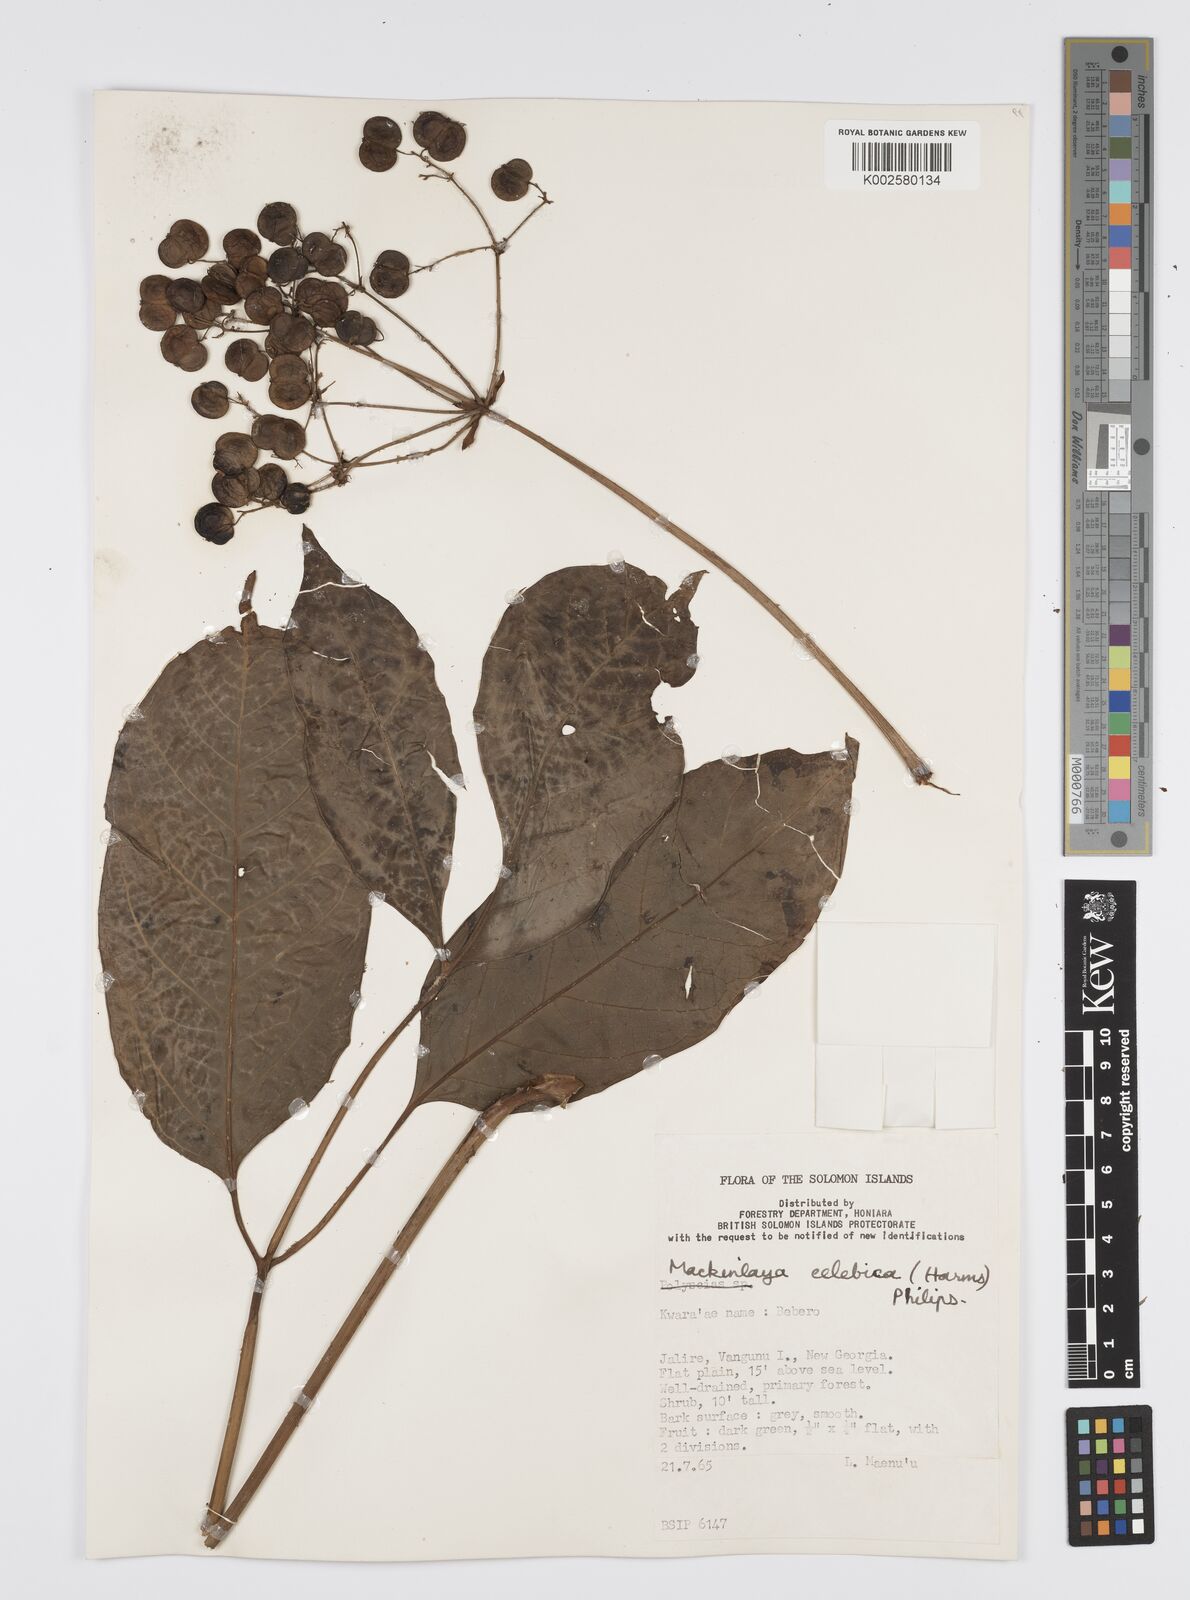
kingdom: Plantae
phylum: Tracheophyta
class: Magnoliopsida
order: Apiales
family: Apiaceae
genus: Mackinlaya
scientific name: Mackinlaya celebica
